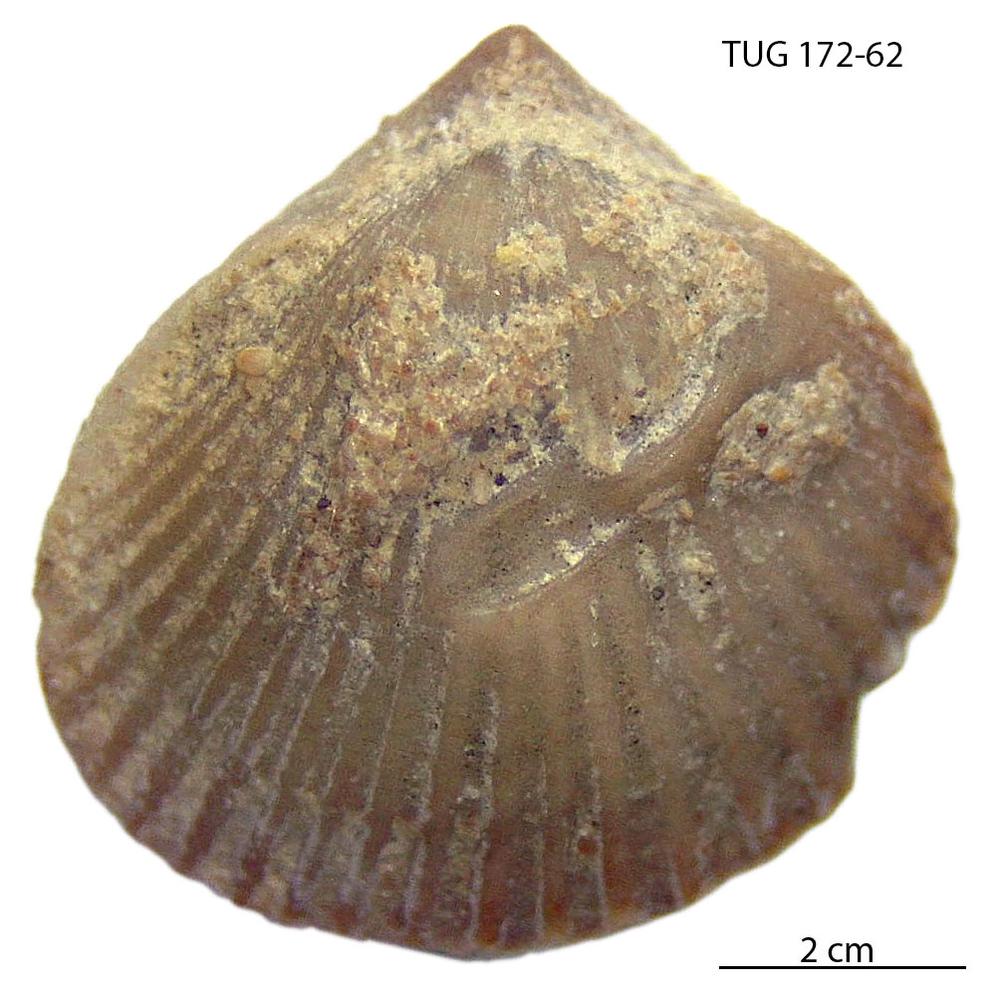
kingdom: Animalia
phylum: Brachiopoda
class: Rhynchonellata
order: Terebratulida
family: Terebratulidae
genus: Terebratula
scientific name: Terebratula livonica
